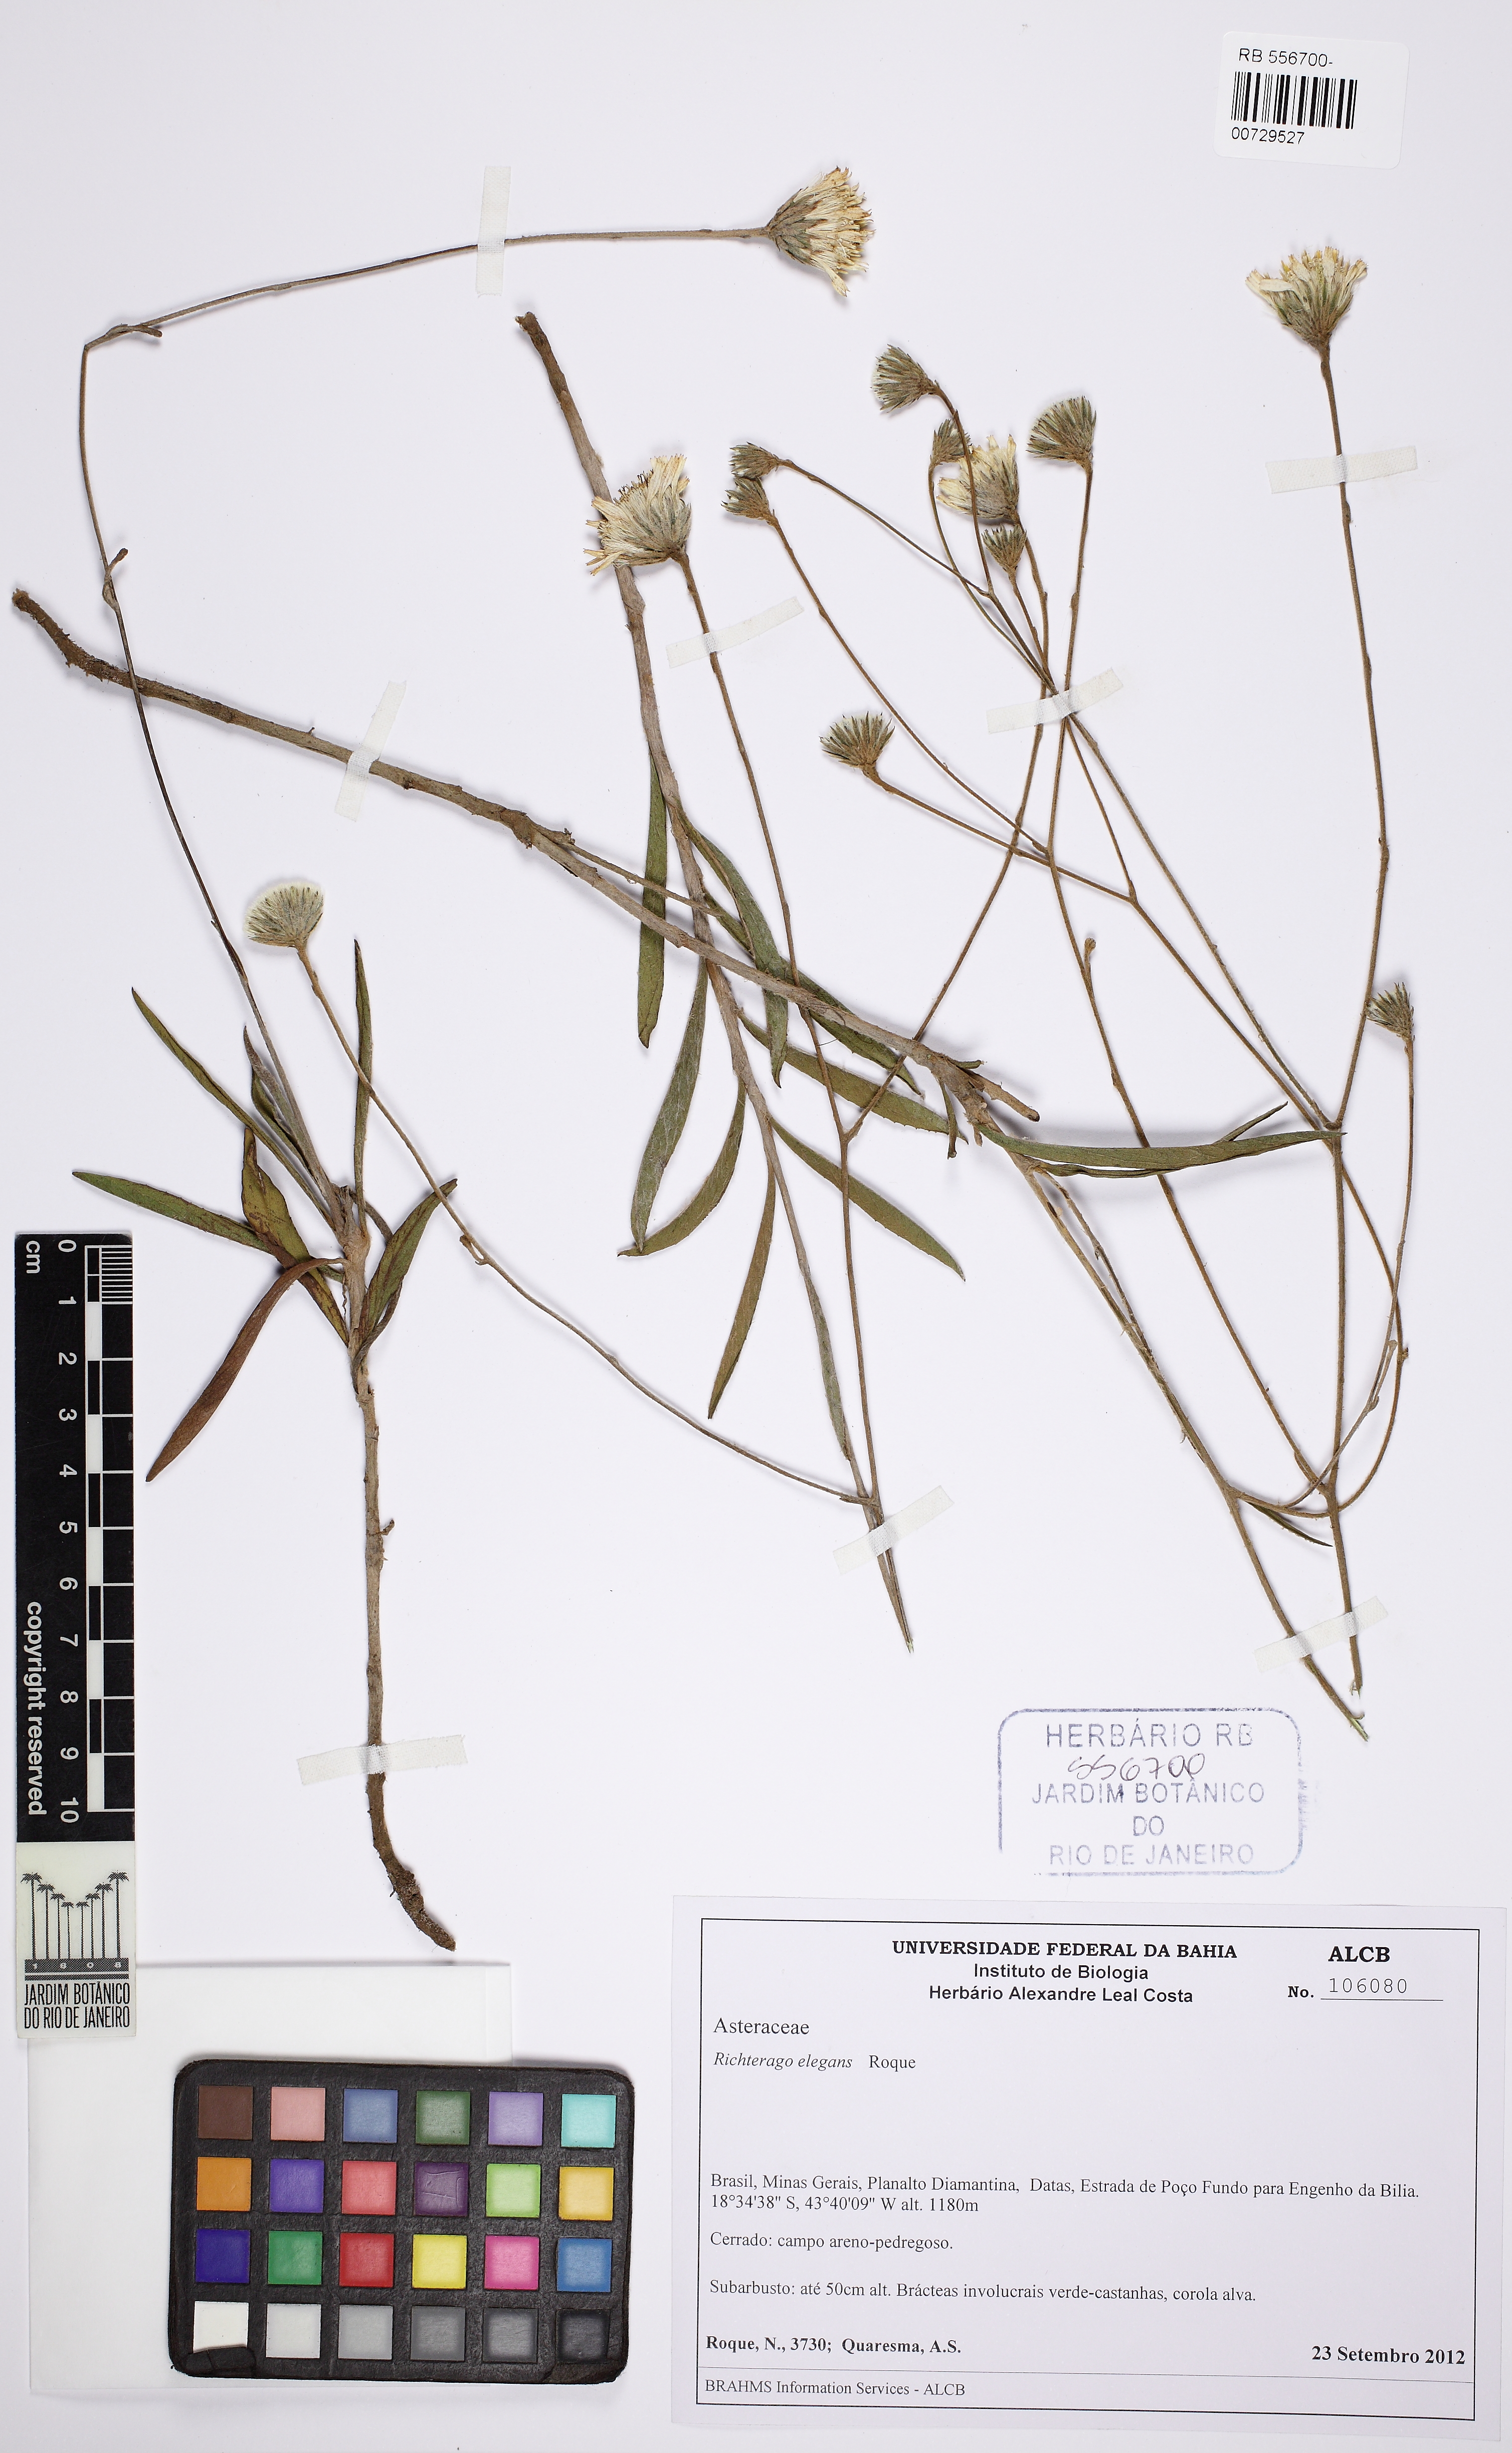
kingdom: Plantae
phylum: Tracheophyta
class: Magnoliopsida
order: Asterales
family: Asteraceae
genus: Richterago
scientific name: Richterago elegans
